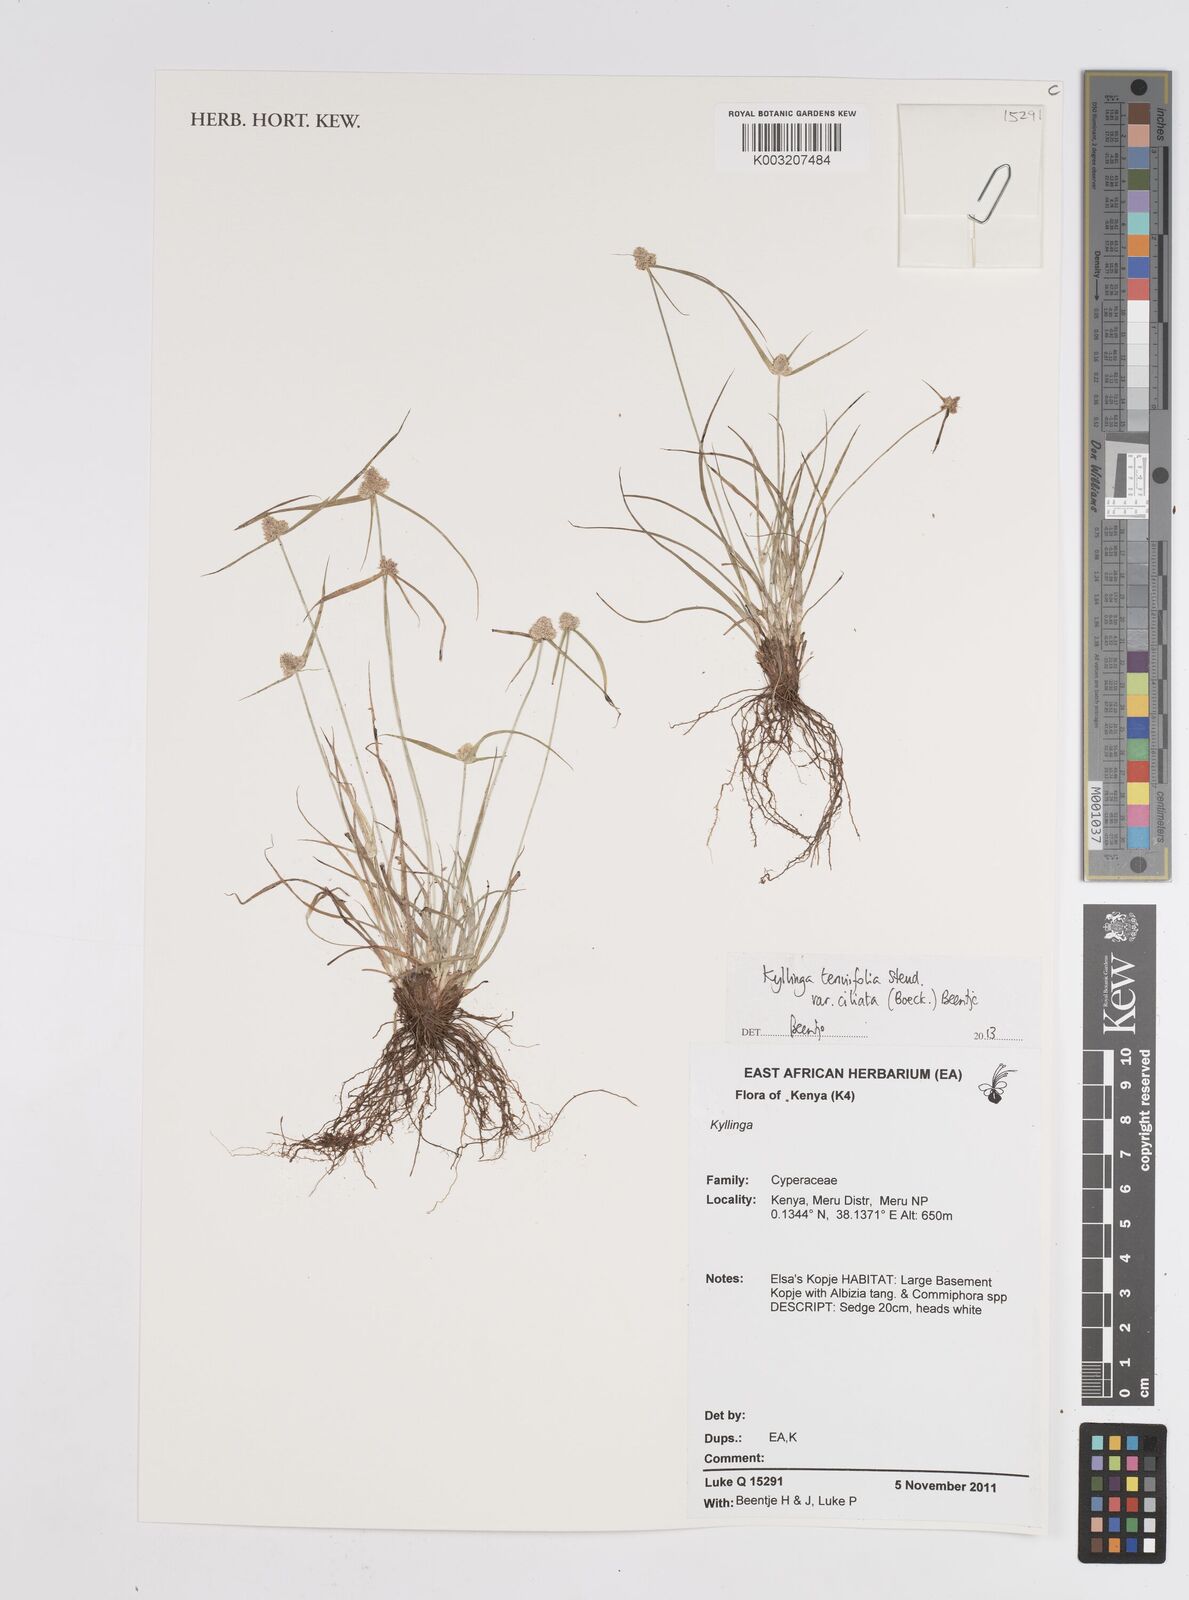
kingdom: Plantae
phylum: Tracheophyta
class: Liliopsida
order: Poales
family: Cyperaceae
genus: Cyperus
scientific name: Cyperus
